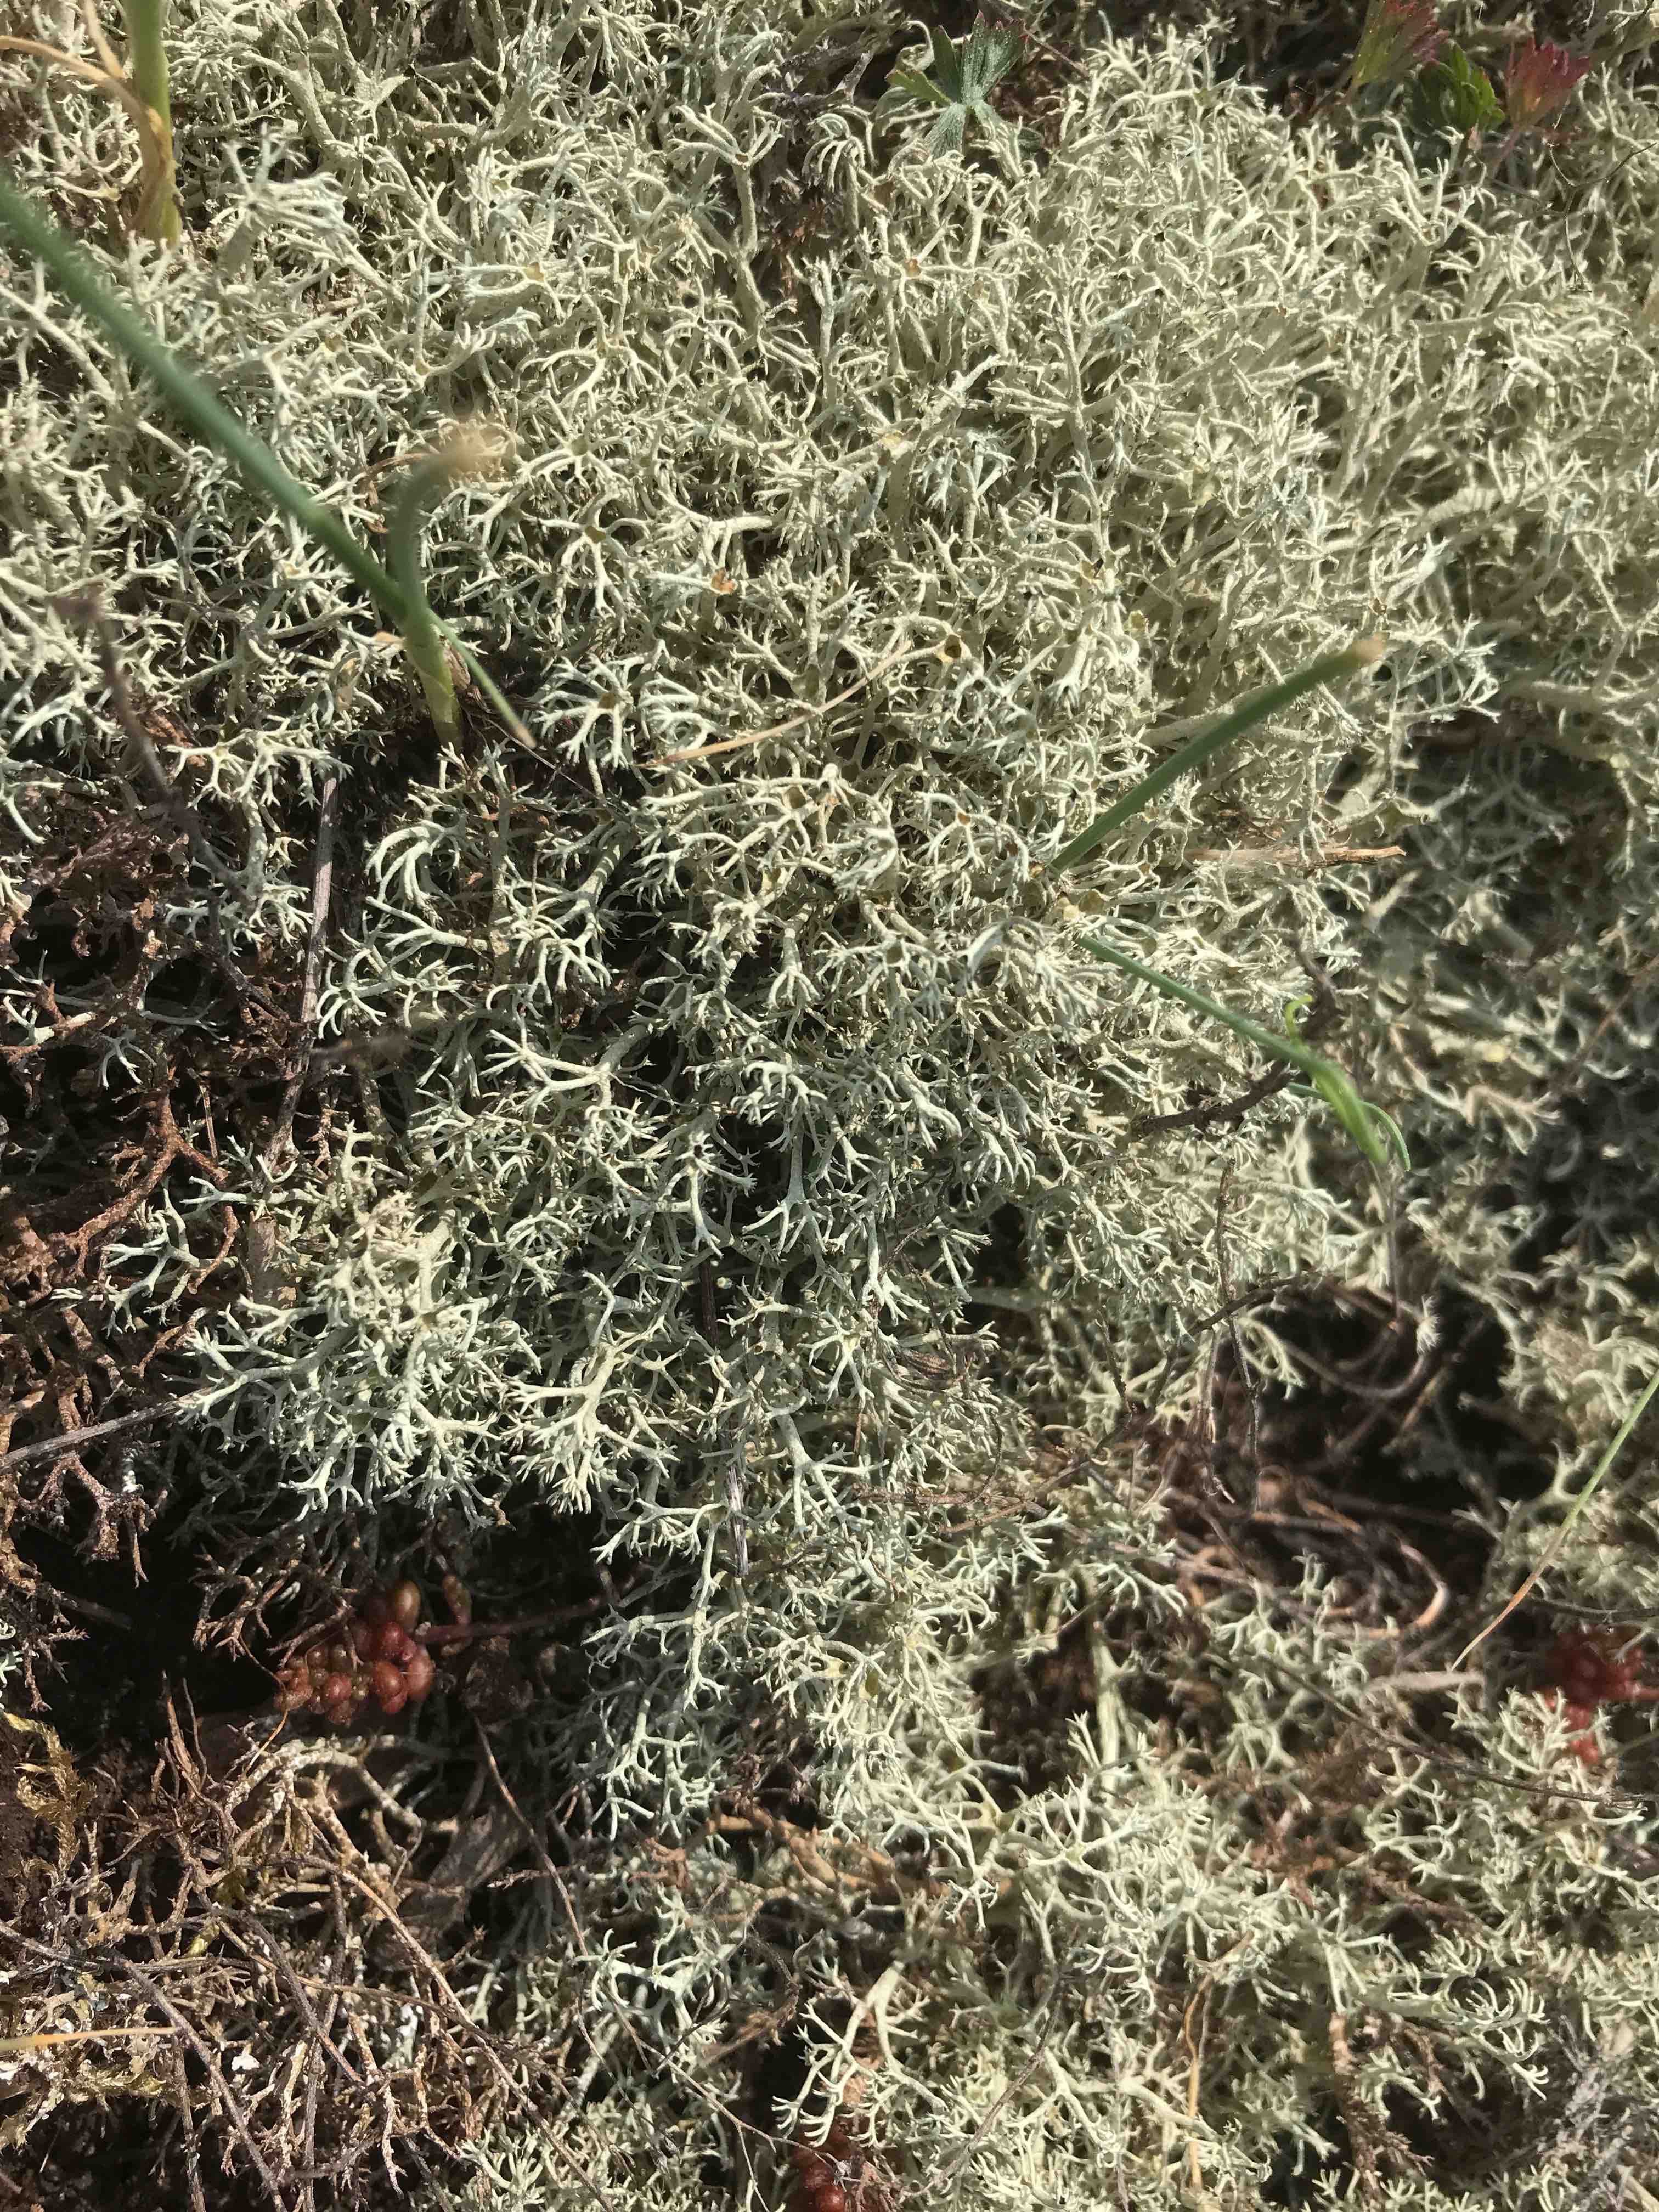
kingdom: Fungi
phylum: Ascomycota
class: Lecanoromycetes
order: Lecanorales
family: Cladoniaceae
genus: Cladonia
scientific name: Cladonia portentosa
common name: hede-rensdyrlav
